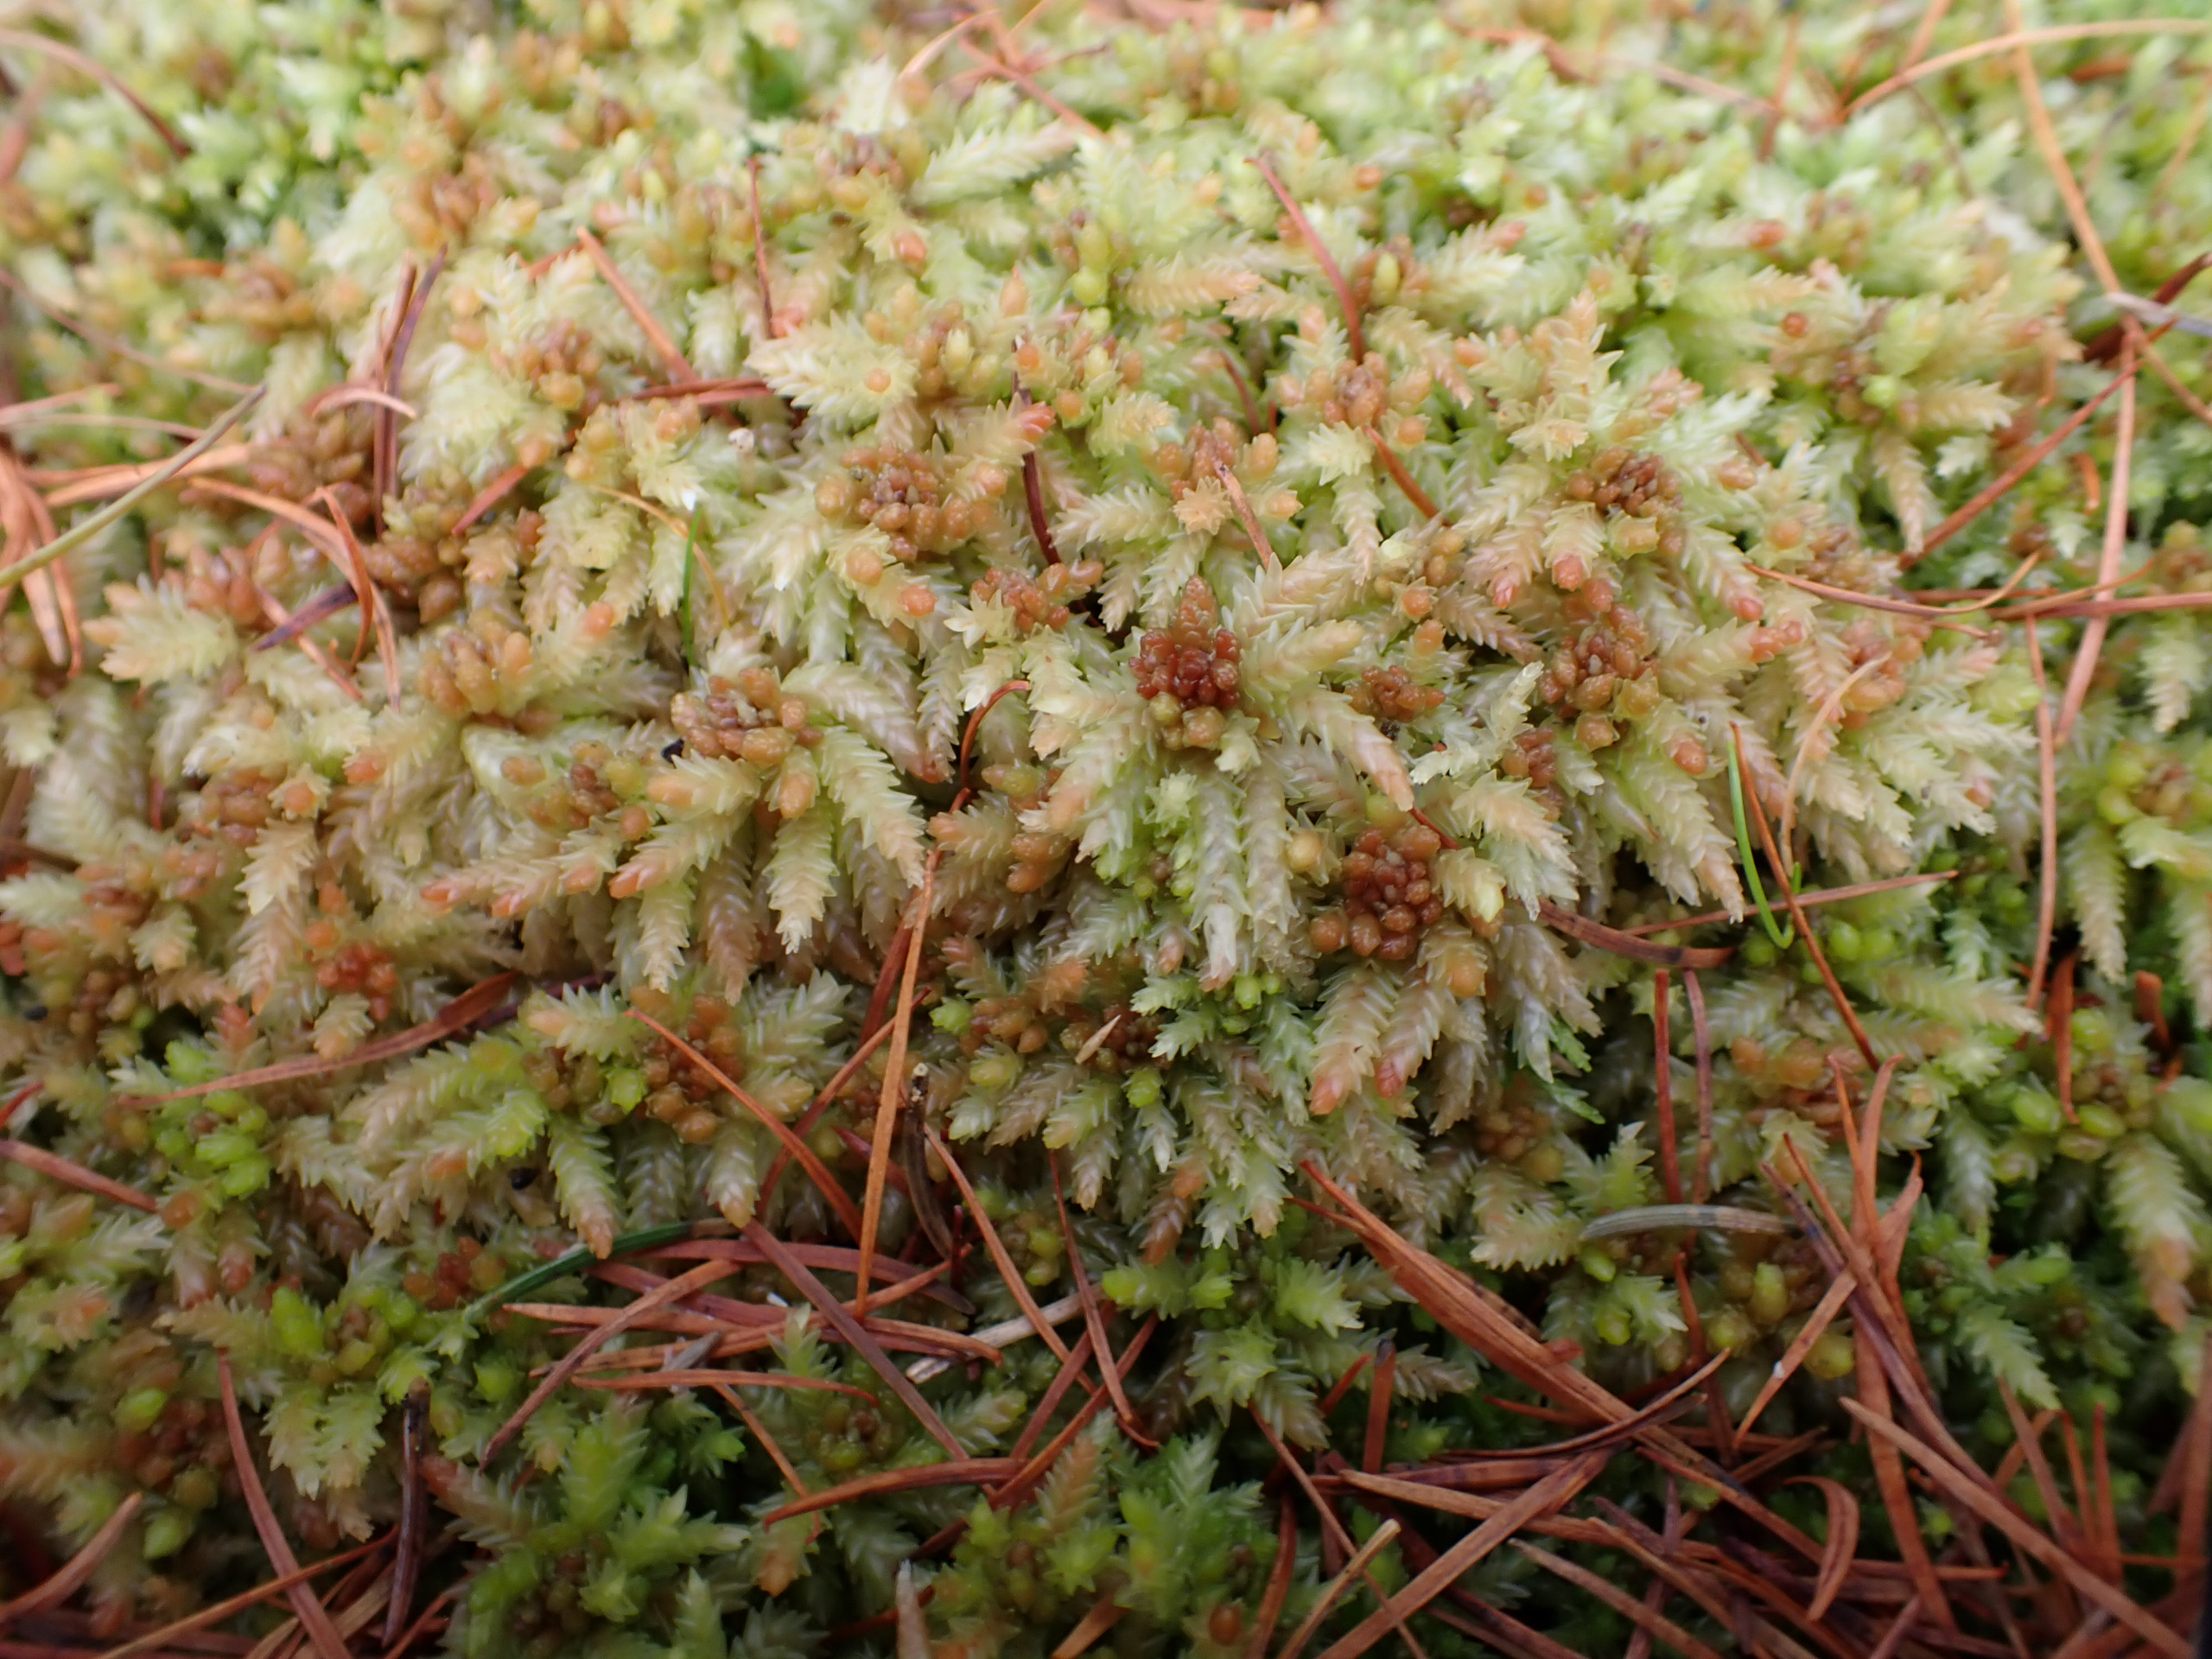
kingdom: Plantae
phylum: Bryophyta
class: Sphagnopsida
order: Sphagnales
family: Sphagnaceae
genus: Sphagnum
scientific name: Sphagnum palustre
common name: Almindelig tørvemos
